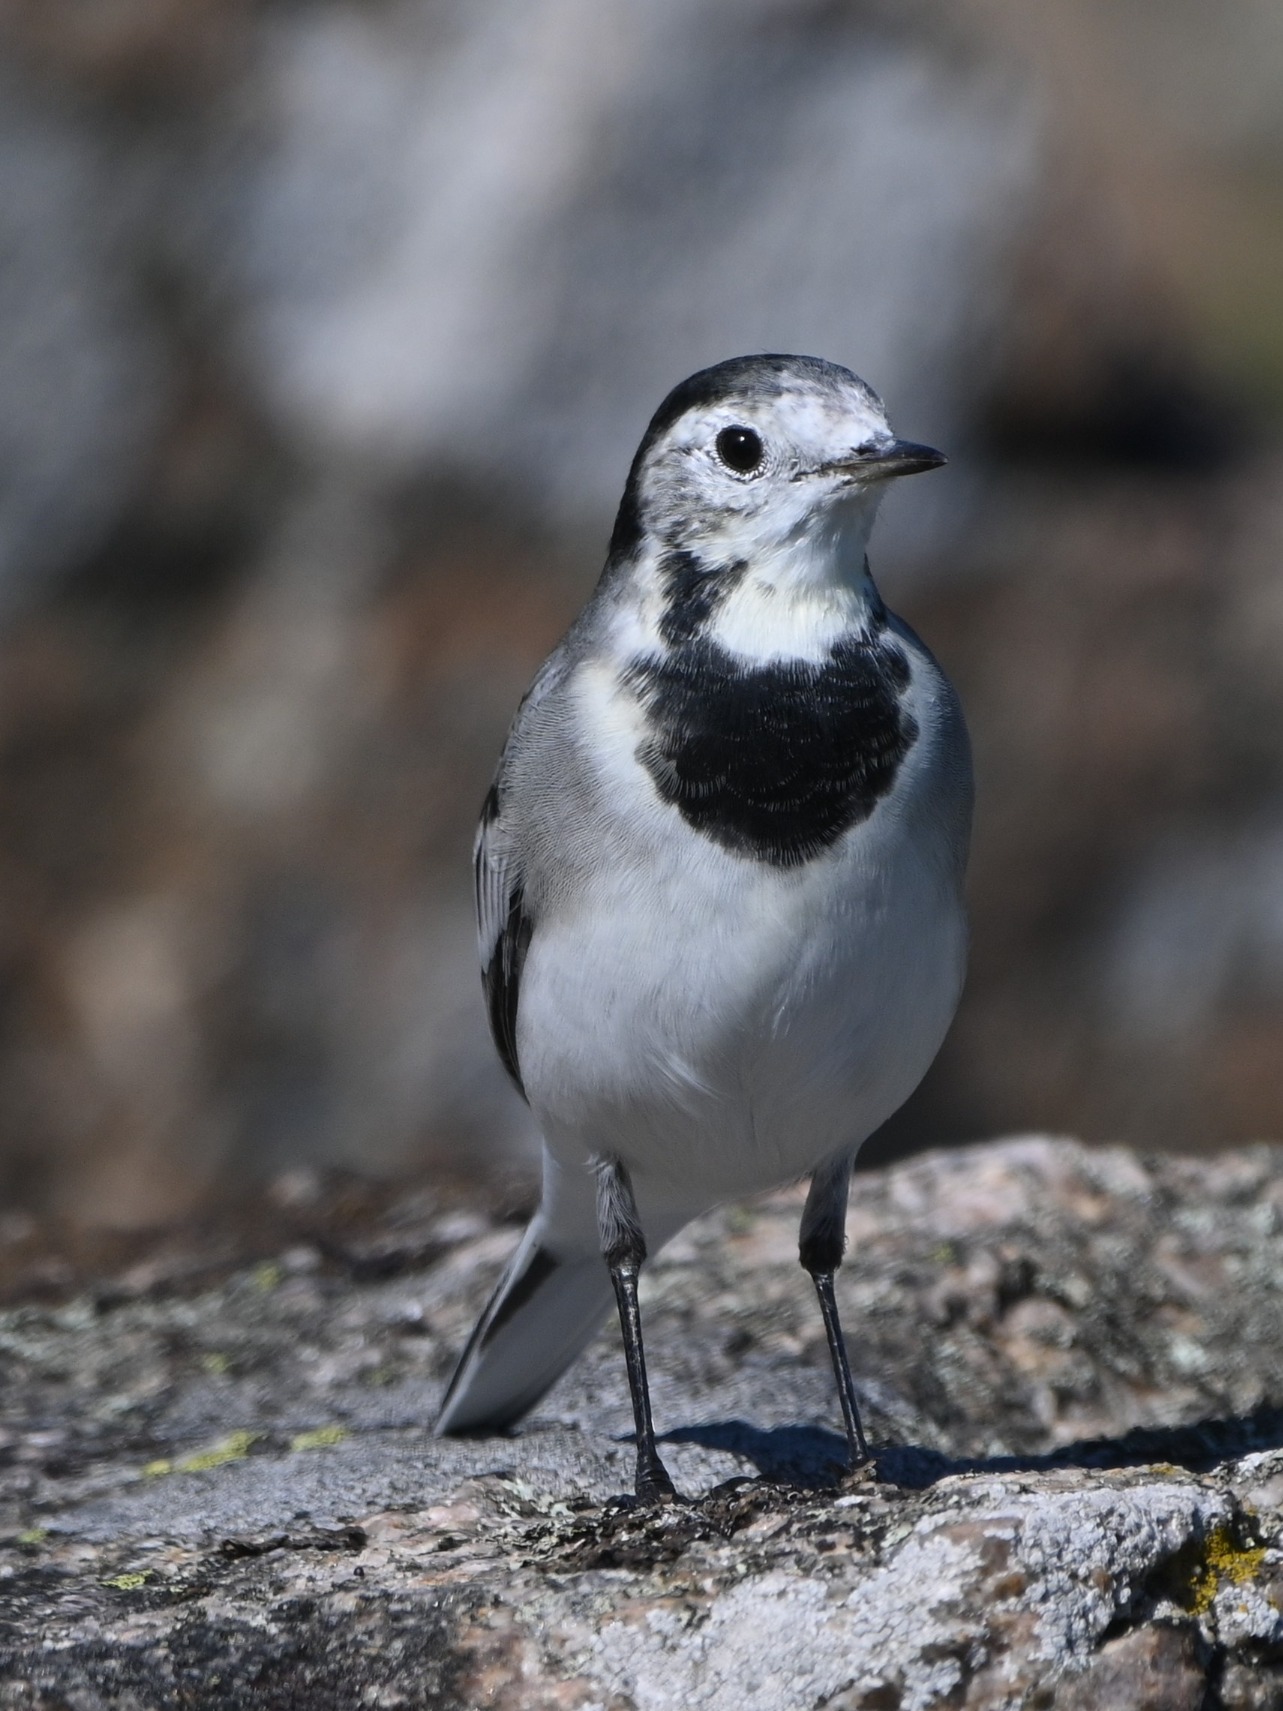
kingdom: Animalia
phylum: Chordata
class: Aves
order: Passeriformes
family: Motacillidae
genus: Motacilla
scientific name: Motacilla alba
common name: Hvid vipstjert
